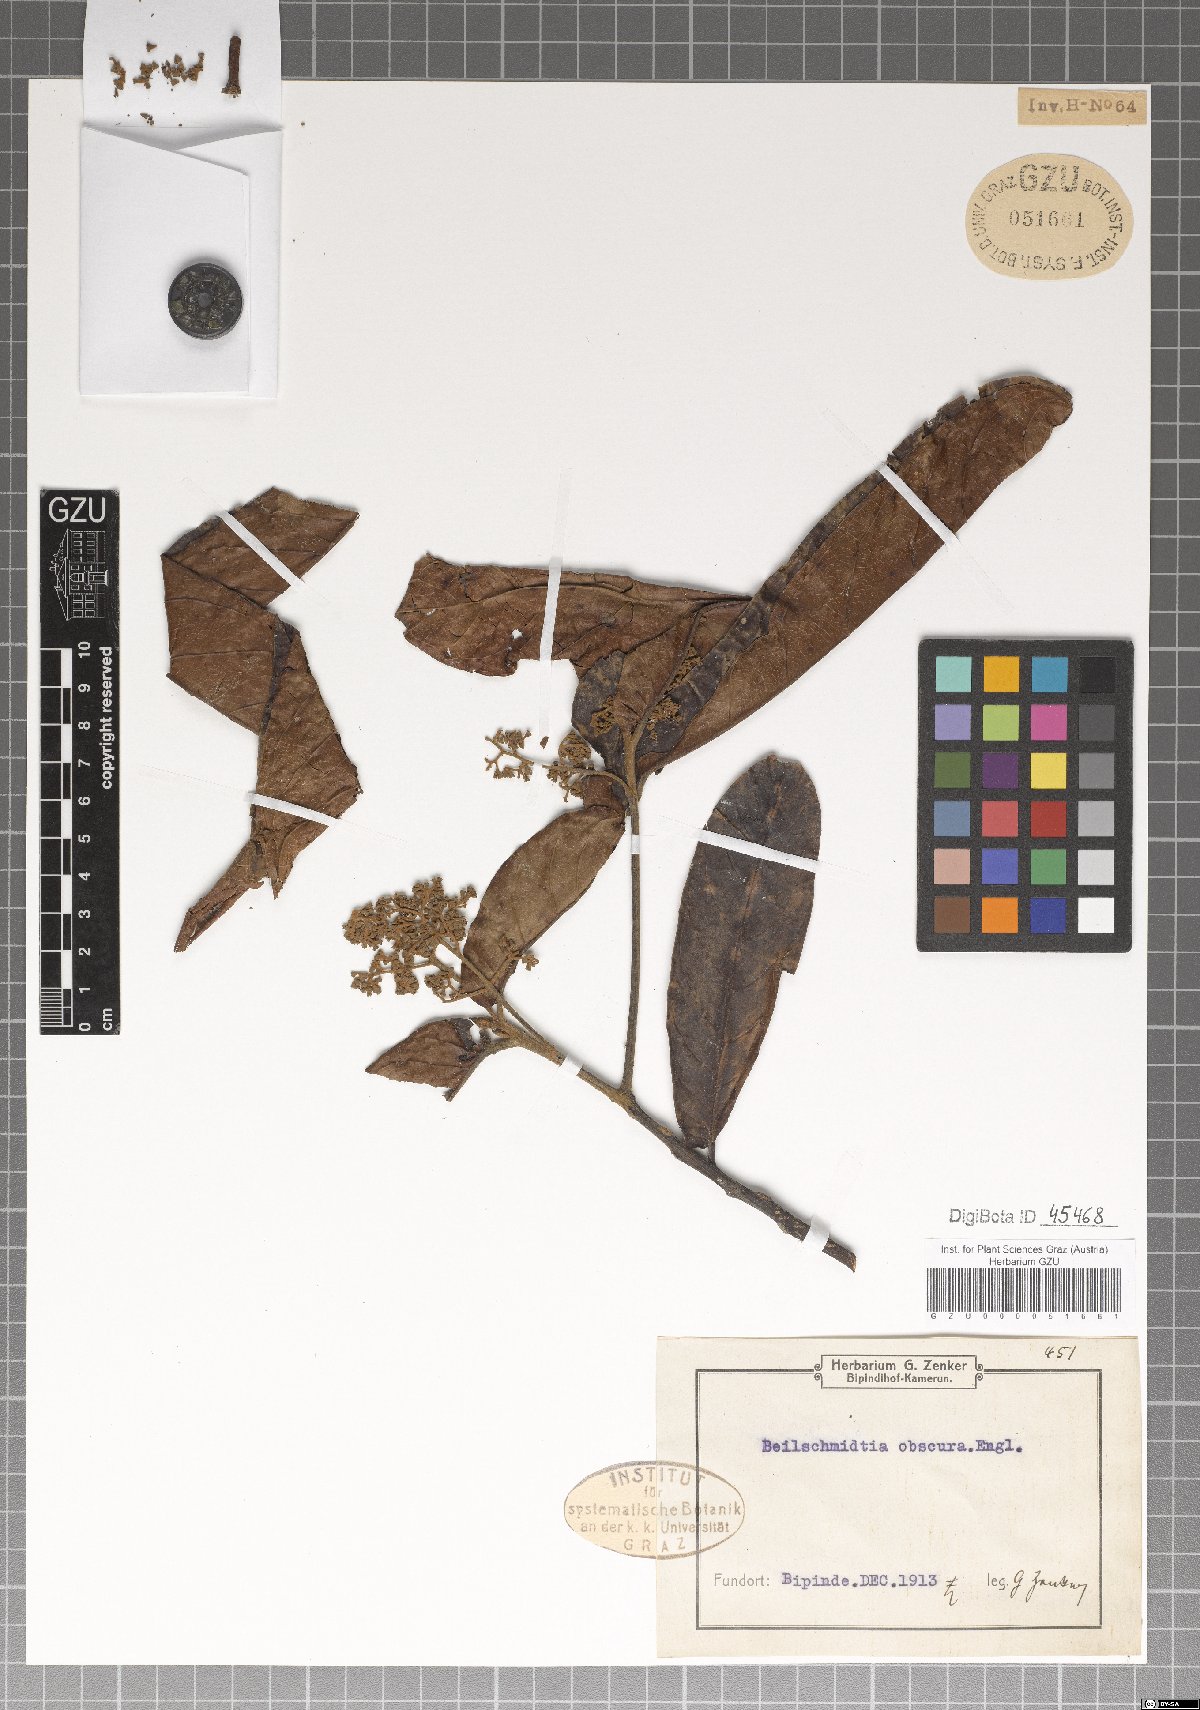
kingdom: Plantae
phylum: Tracheophyta
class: Magnoliopsida
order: Laurales
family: Lauraceae
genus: Beilschmiedia
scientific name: Beilschmiedia obscura
